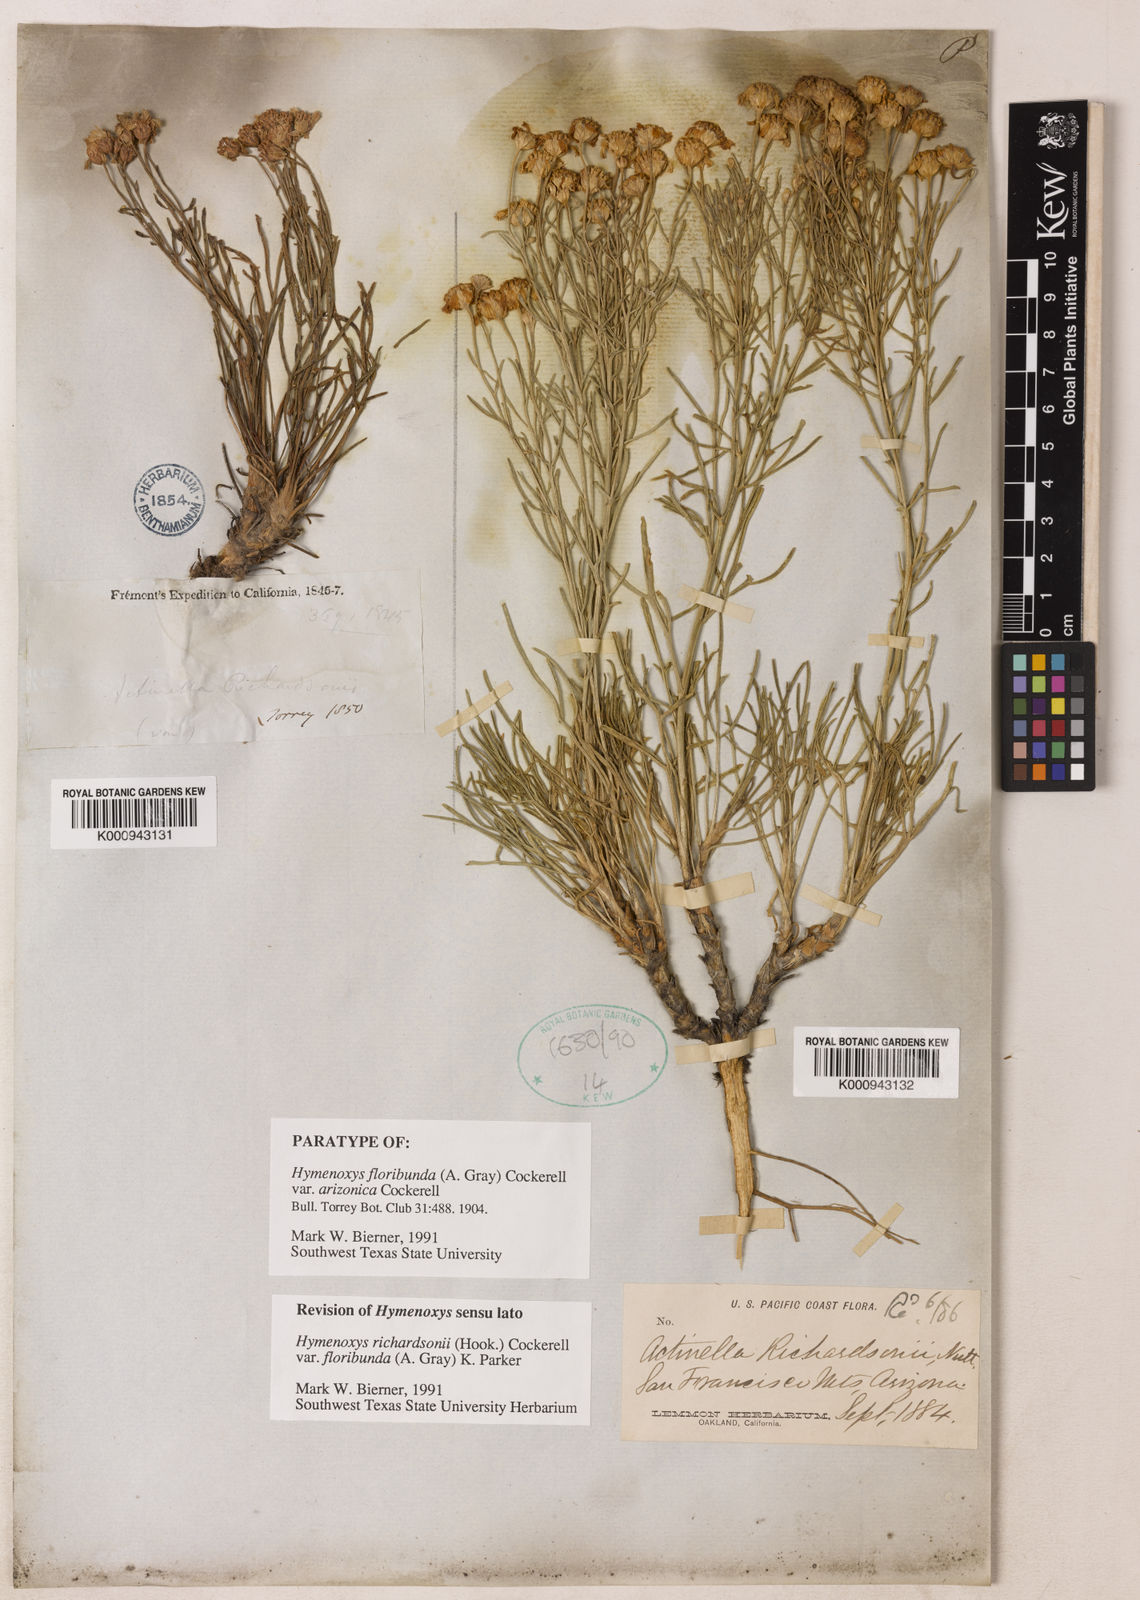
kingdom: Plantae
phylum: Tracheophyta
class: Magnoliopsida
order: Asterales
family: Asteraceae
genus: Hymenoxys
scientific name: Hymenoxys richardsonii
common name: Pingue rubberweed
